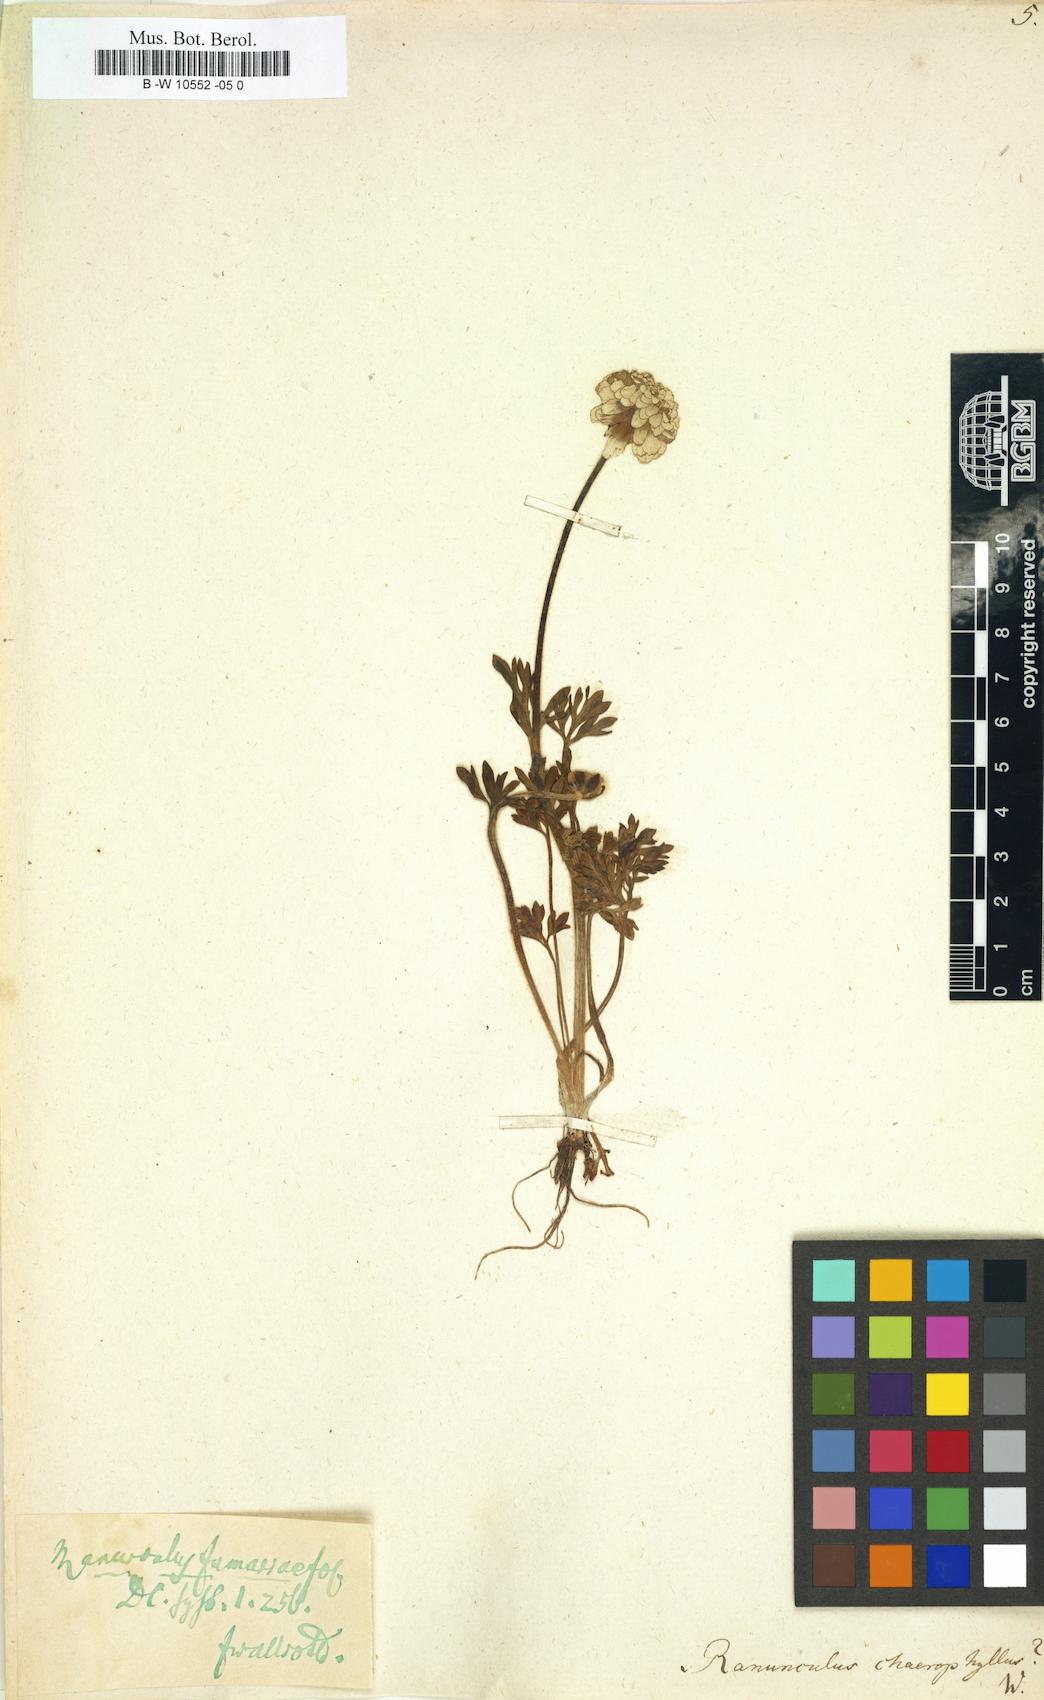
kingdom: Plantae
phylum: Tracheophyta
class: Magnoliopsida
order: Ranunculales
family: Ranunculaceae
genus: Ranunculus
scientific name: Ranunculus chaerophyllos
